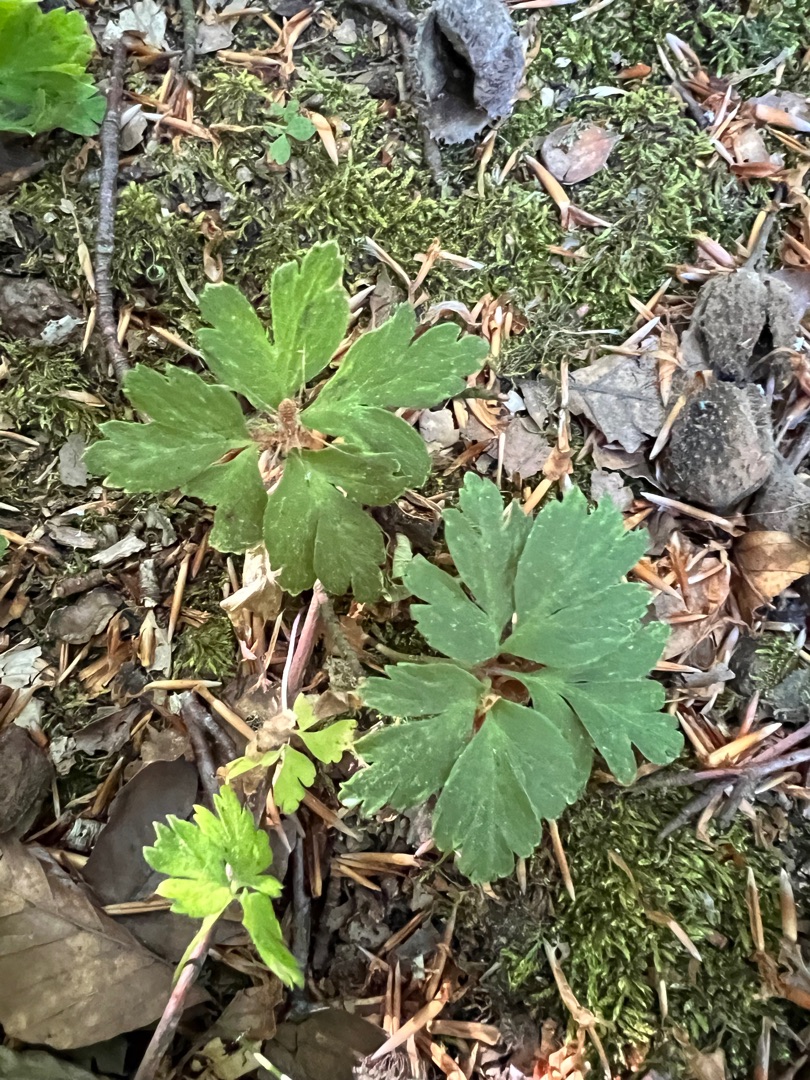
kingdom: Plantae
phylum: Tracheophyta
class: Magnoliopsida
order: Ranunculales
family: Ranunculaceae
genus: Anemone
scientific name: Anemone nemorosa
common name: Hvid anemone
